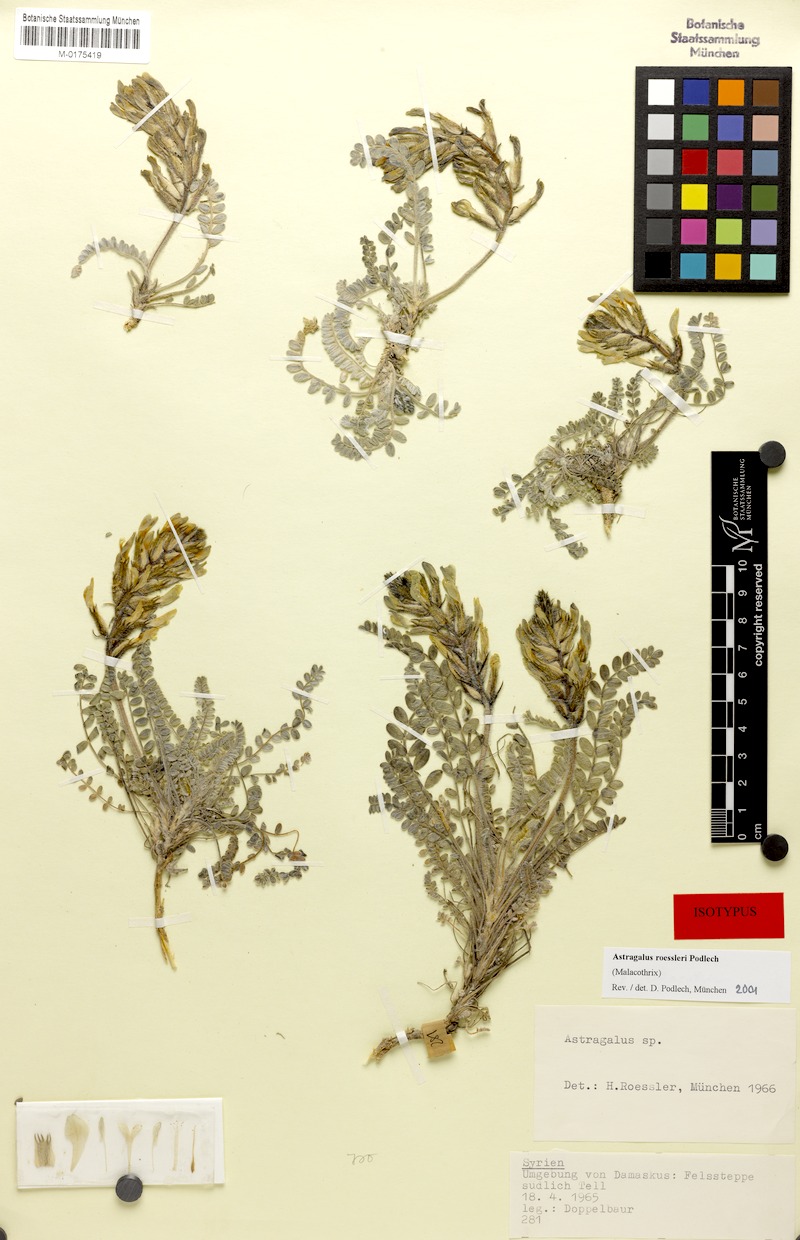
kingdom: Plantae
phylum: Tracheophyta
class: Magnoliopsida
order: Fabales
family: Fabaceae
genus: Astragalus
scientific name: Astragalus roessleri
